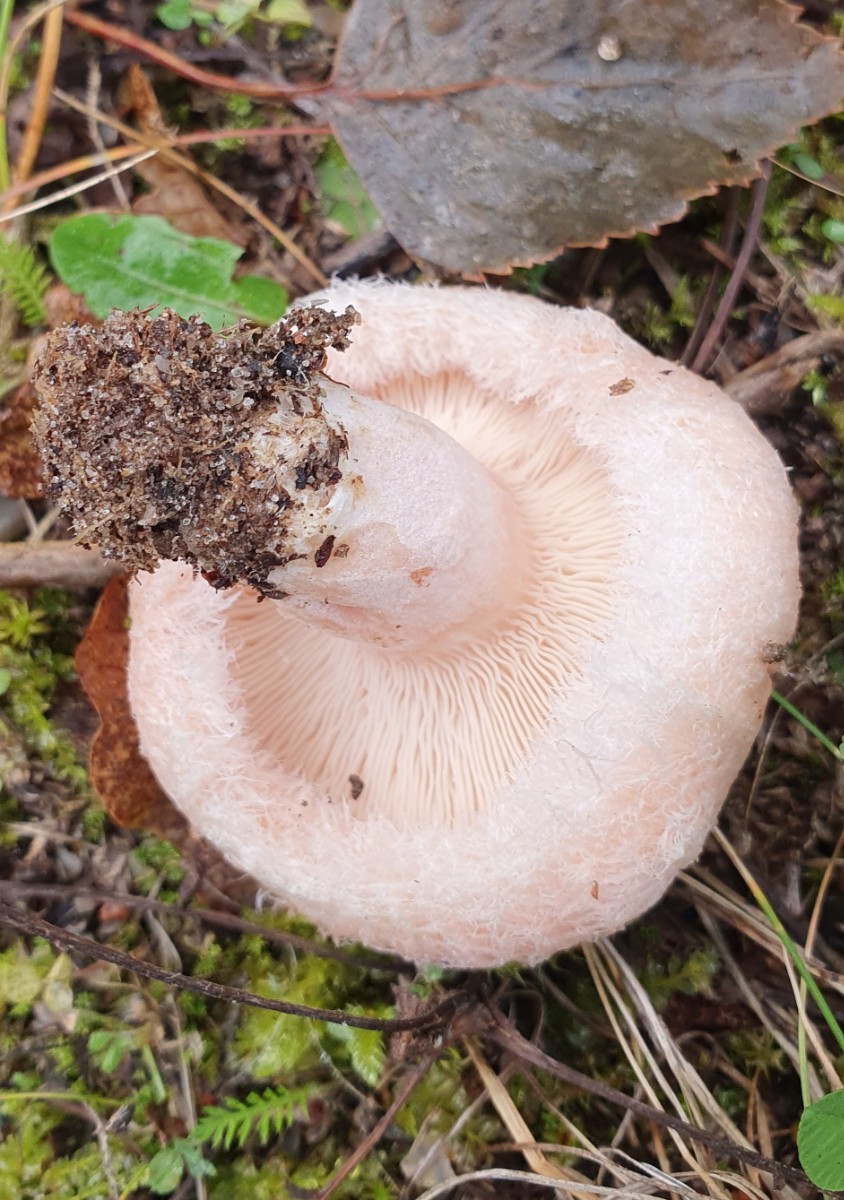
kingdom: Fungi
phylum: Basidiomycota
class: Agaricomycetes
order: Russulales
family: Russulaceae
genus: Lactarius
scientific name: Lactarius pubescens
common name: dunet mælkehat
